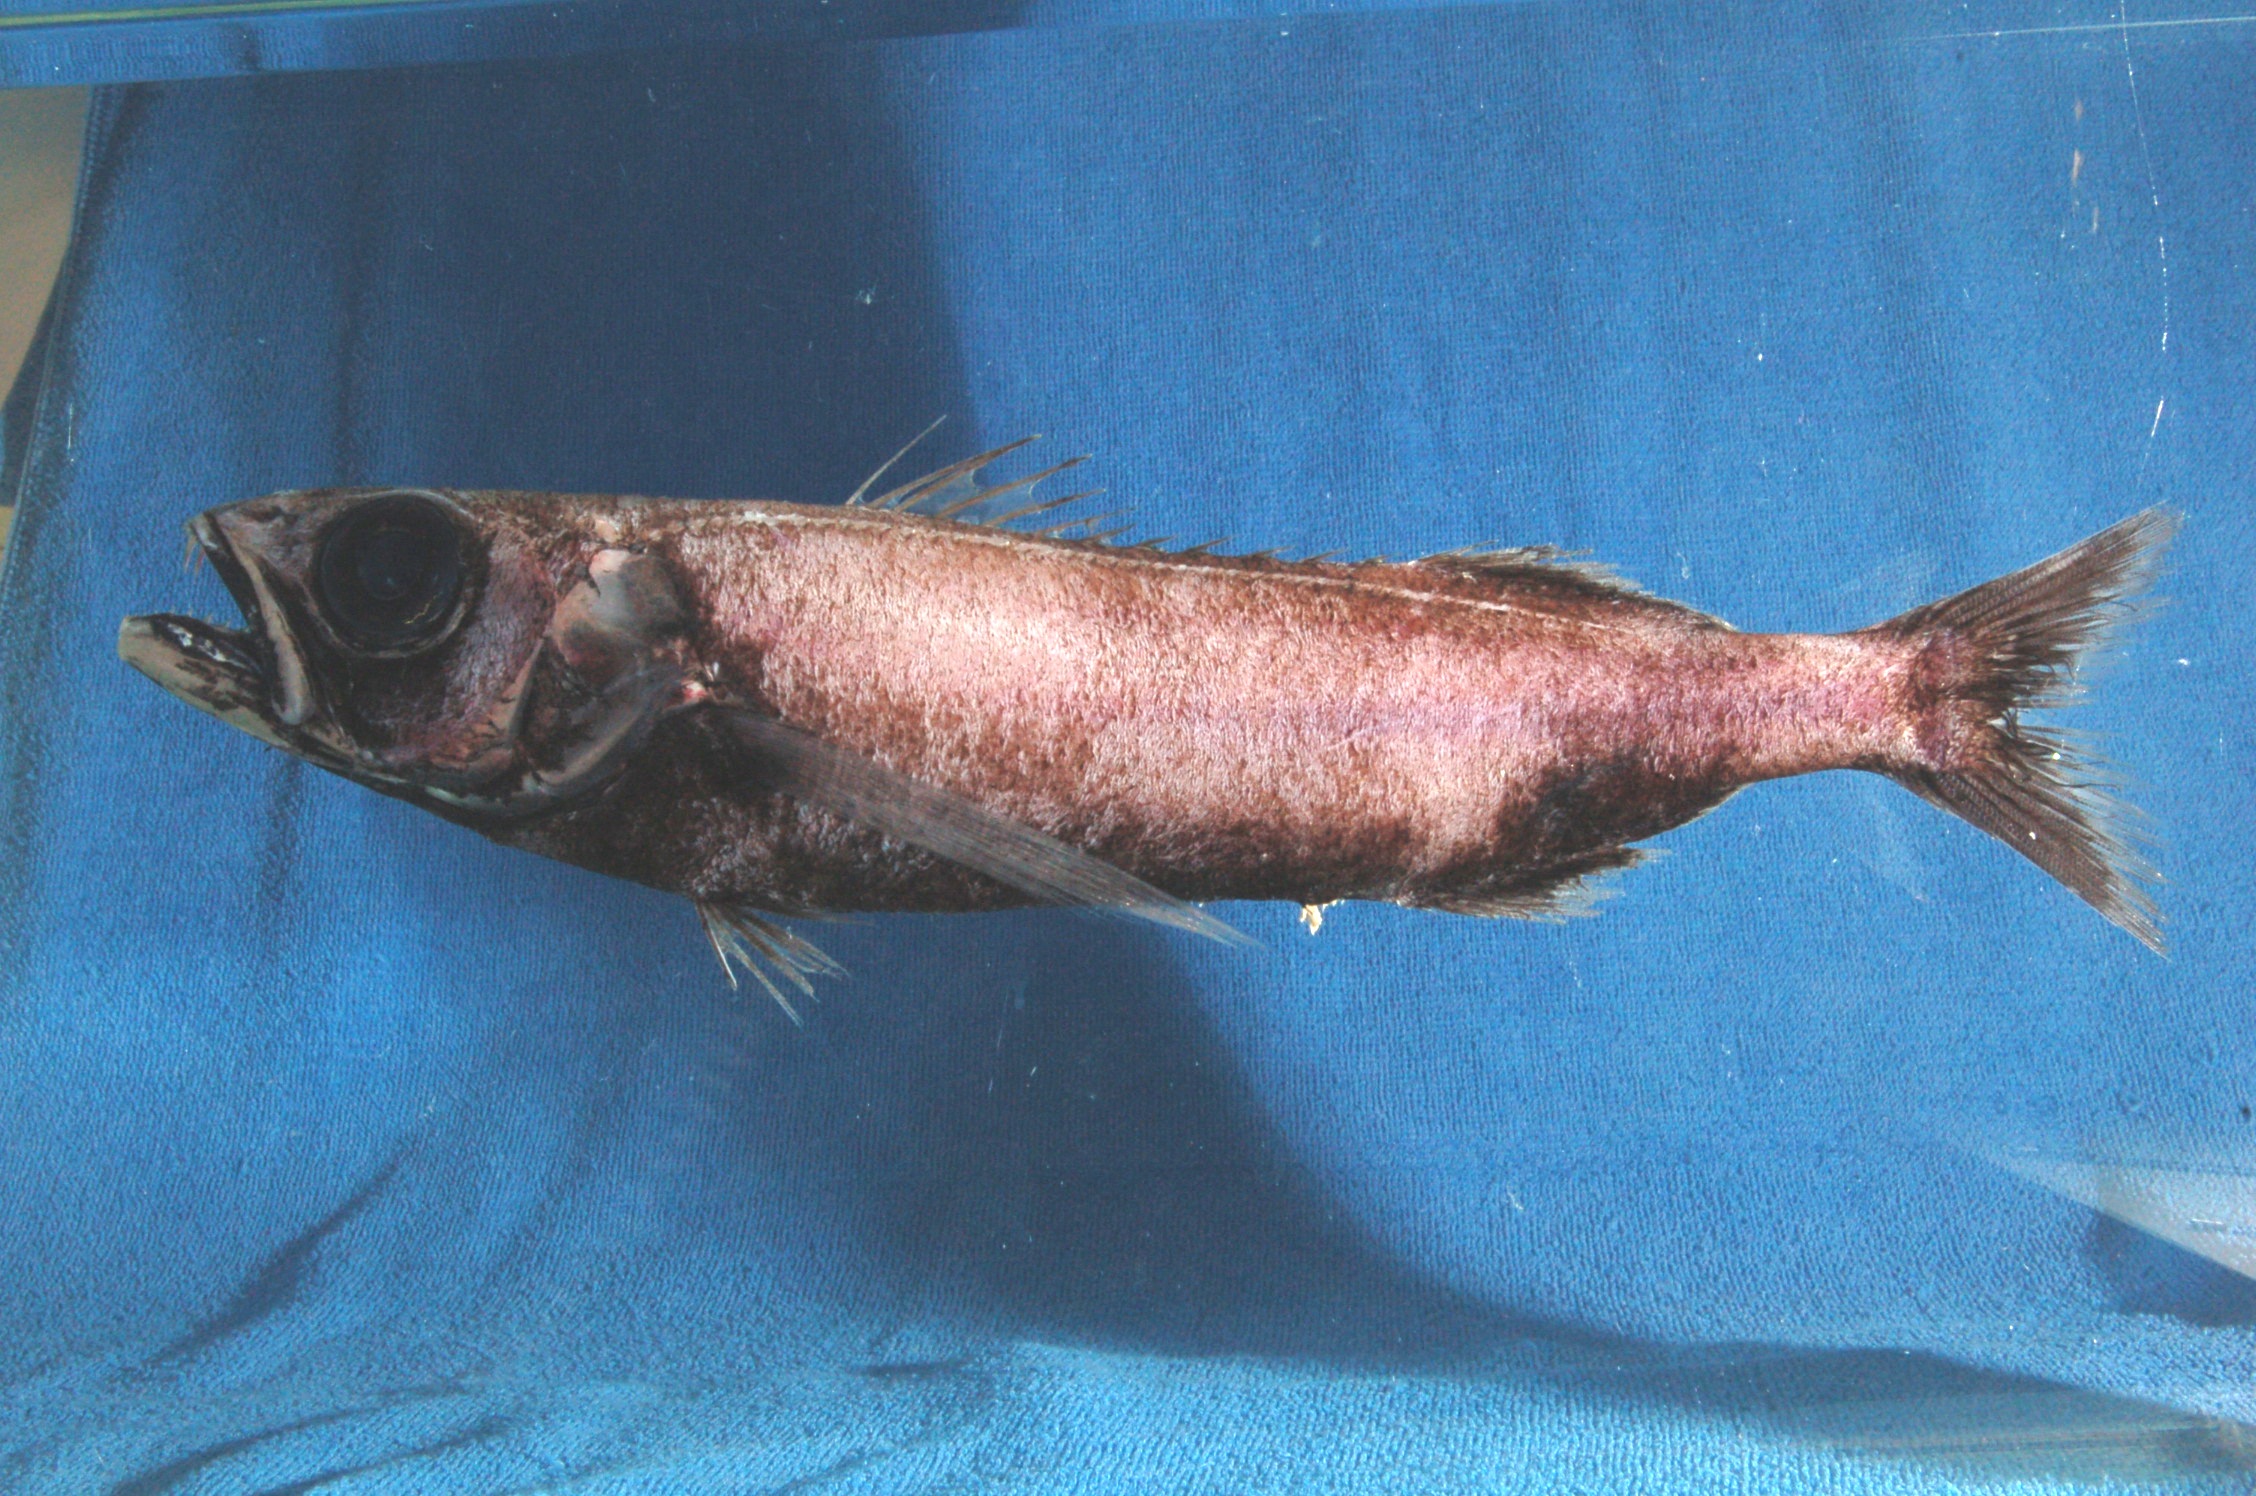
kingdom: Animalia
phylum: Chordata
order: Perciformes
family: Scombrolabracidae
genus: Scombrolabrax
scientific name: Scombrolabrax heterolepis
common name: Black mackerel
